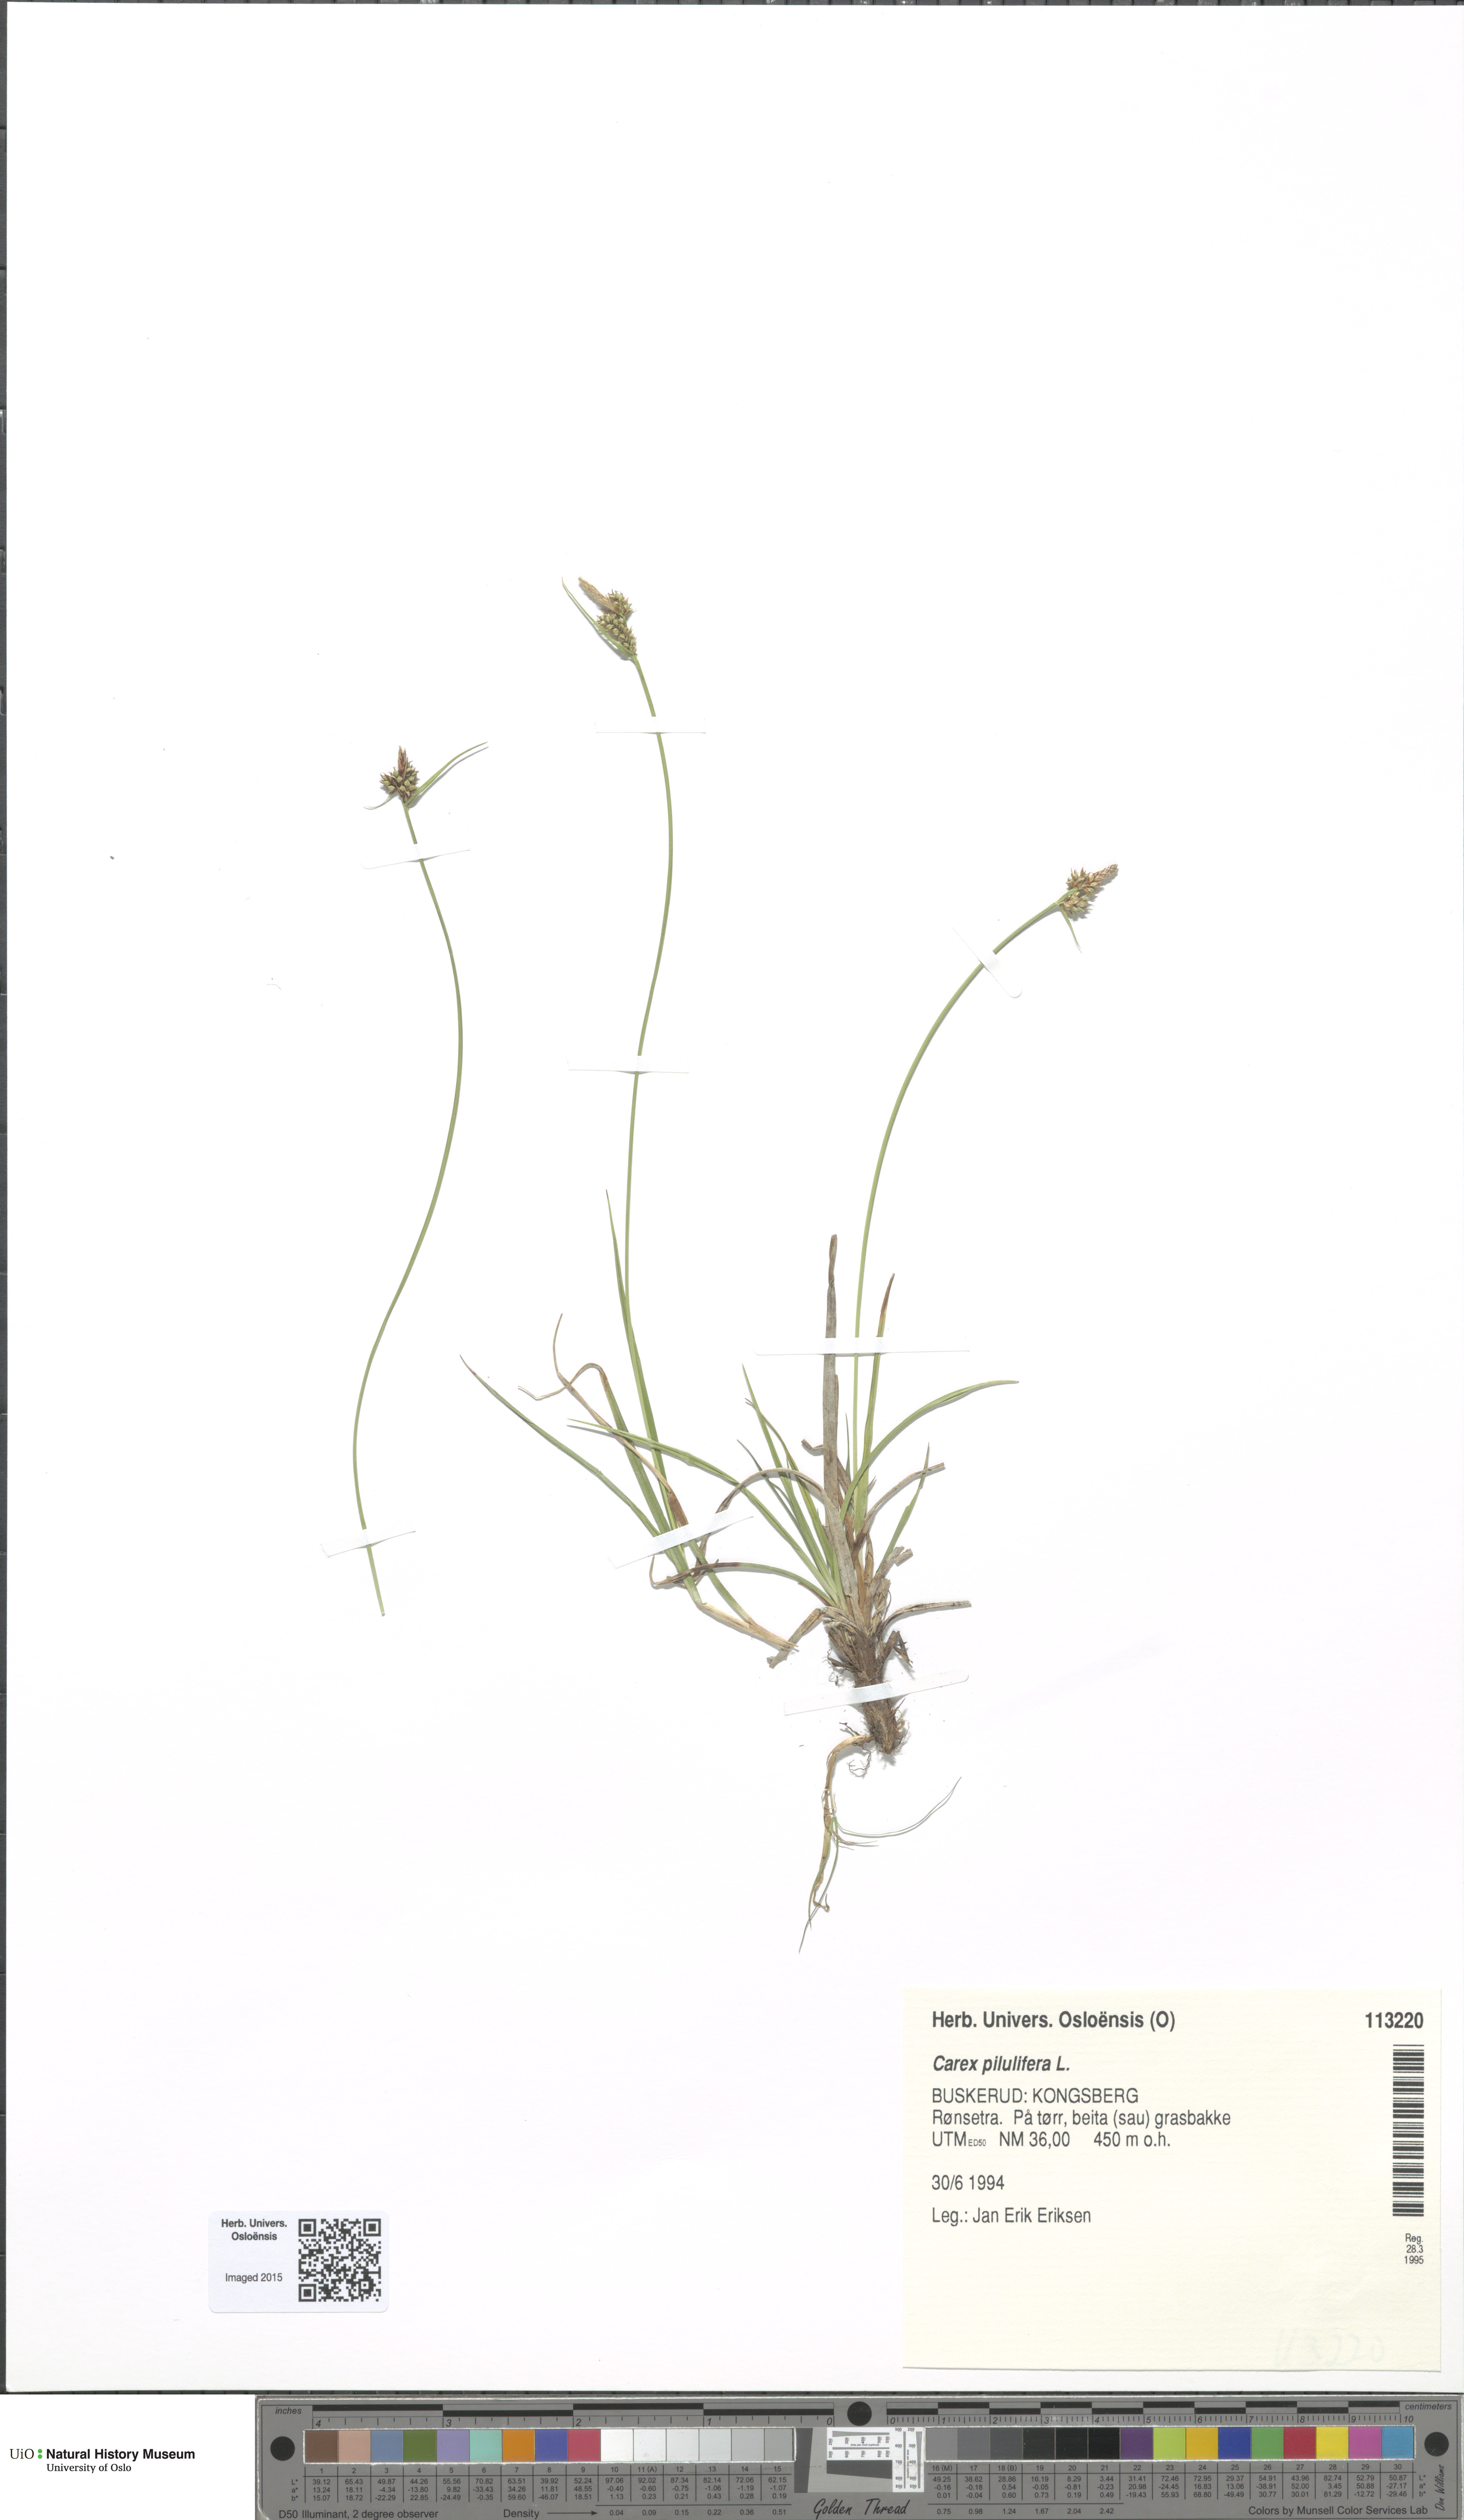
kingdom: Plantae
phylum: Tracheophyta
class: Liliopsida
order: Poales
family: Cyperaceae
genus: Carex
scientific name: Carex pilulifera
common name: Pill sedge
